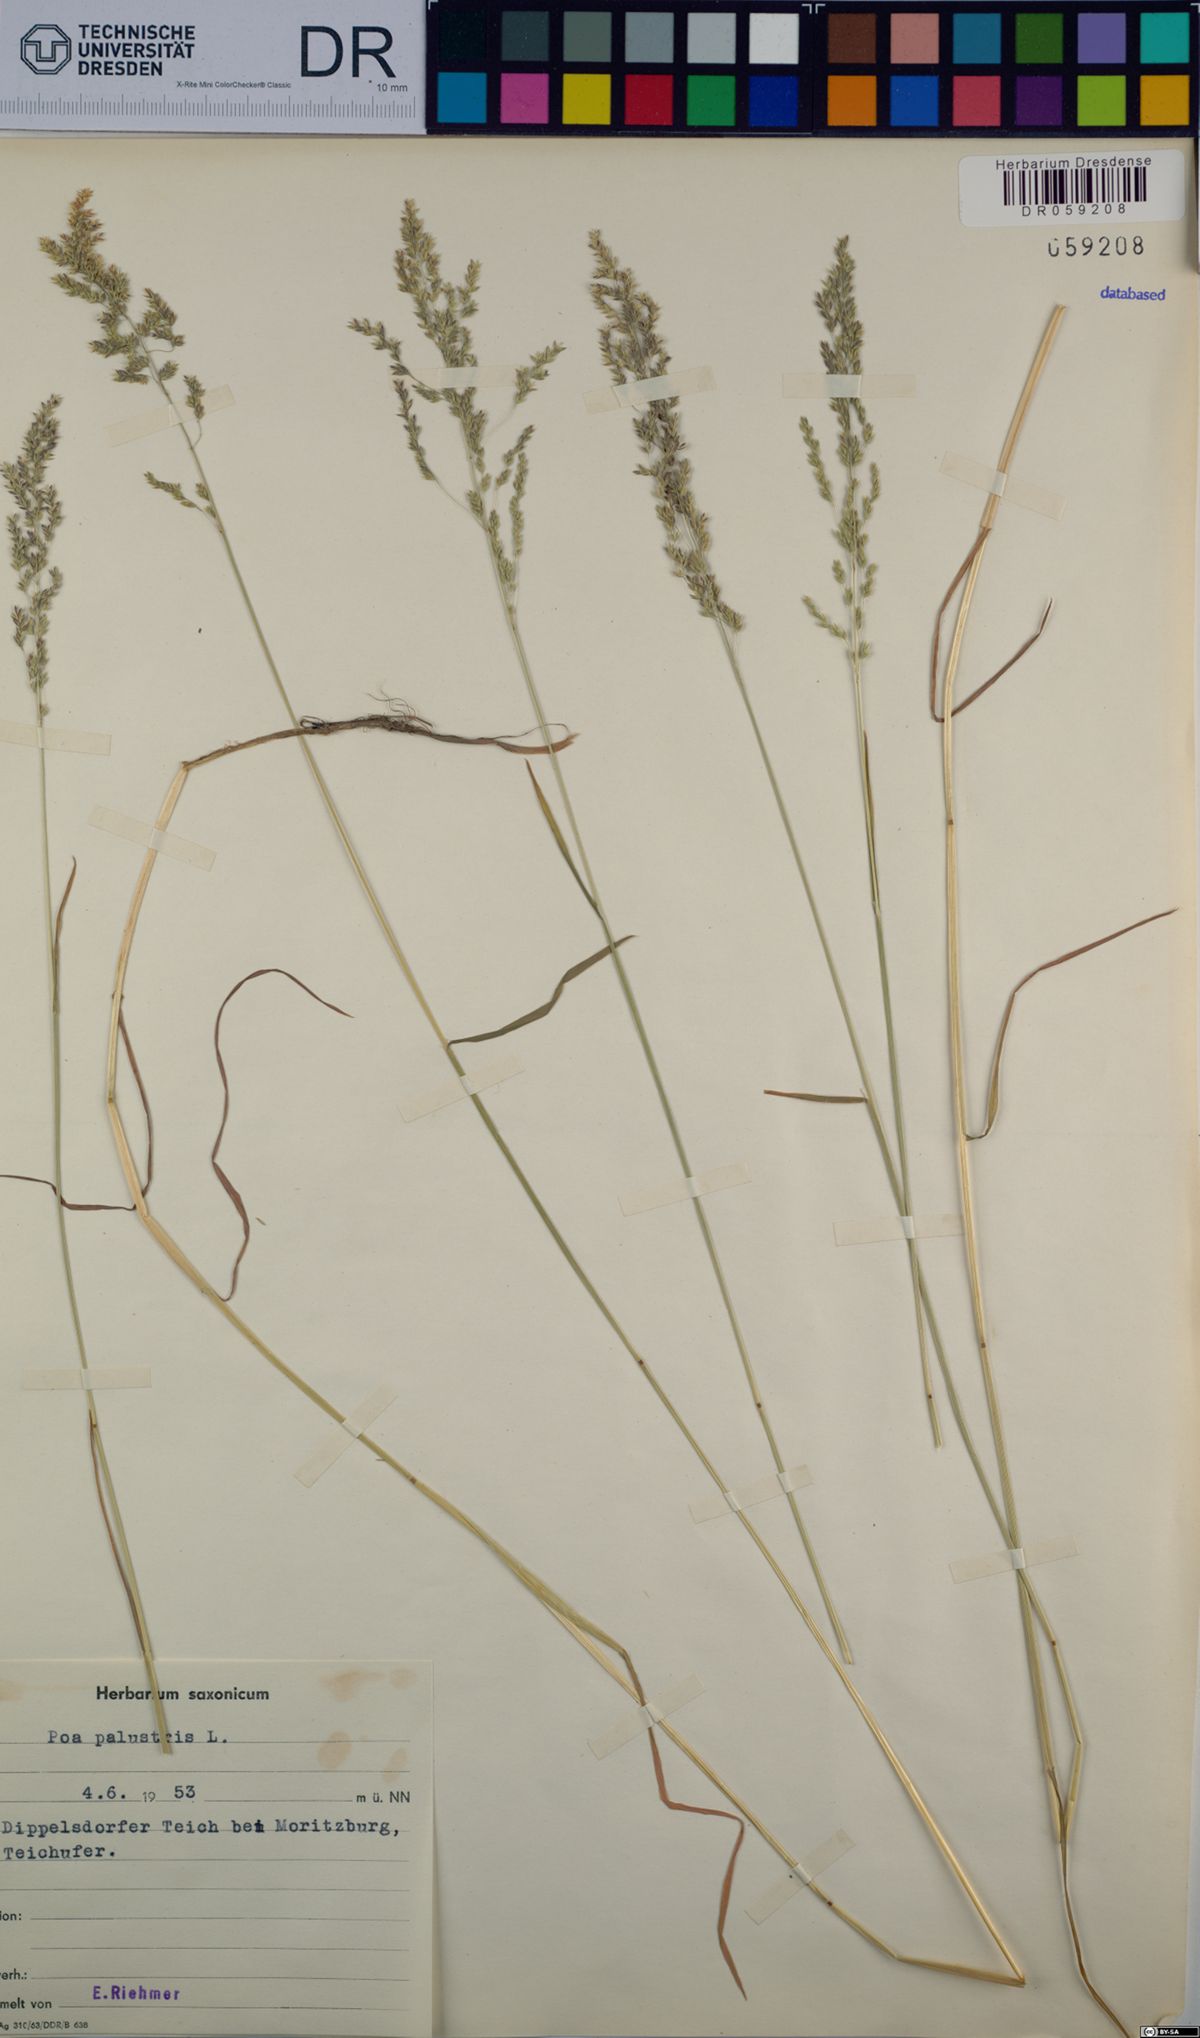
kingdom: Plantae
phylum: Tracheophyta
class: Liliopsida
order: Poales
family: Poaceae
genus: Poa
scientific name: Poa palustris
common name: Swamp meadow-grass
